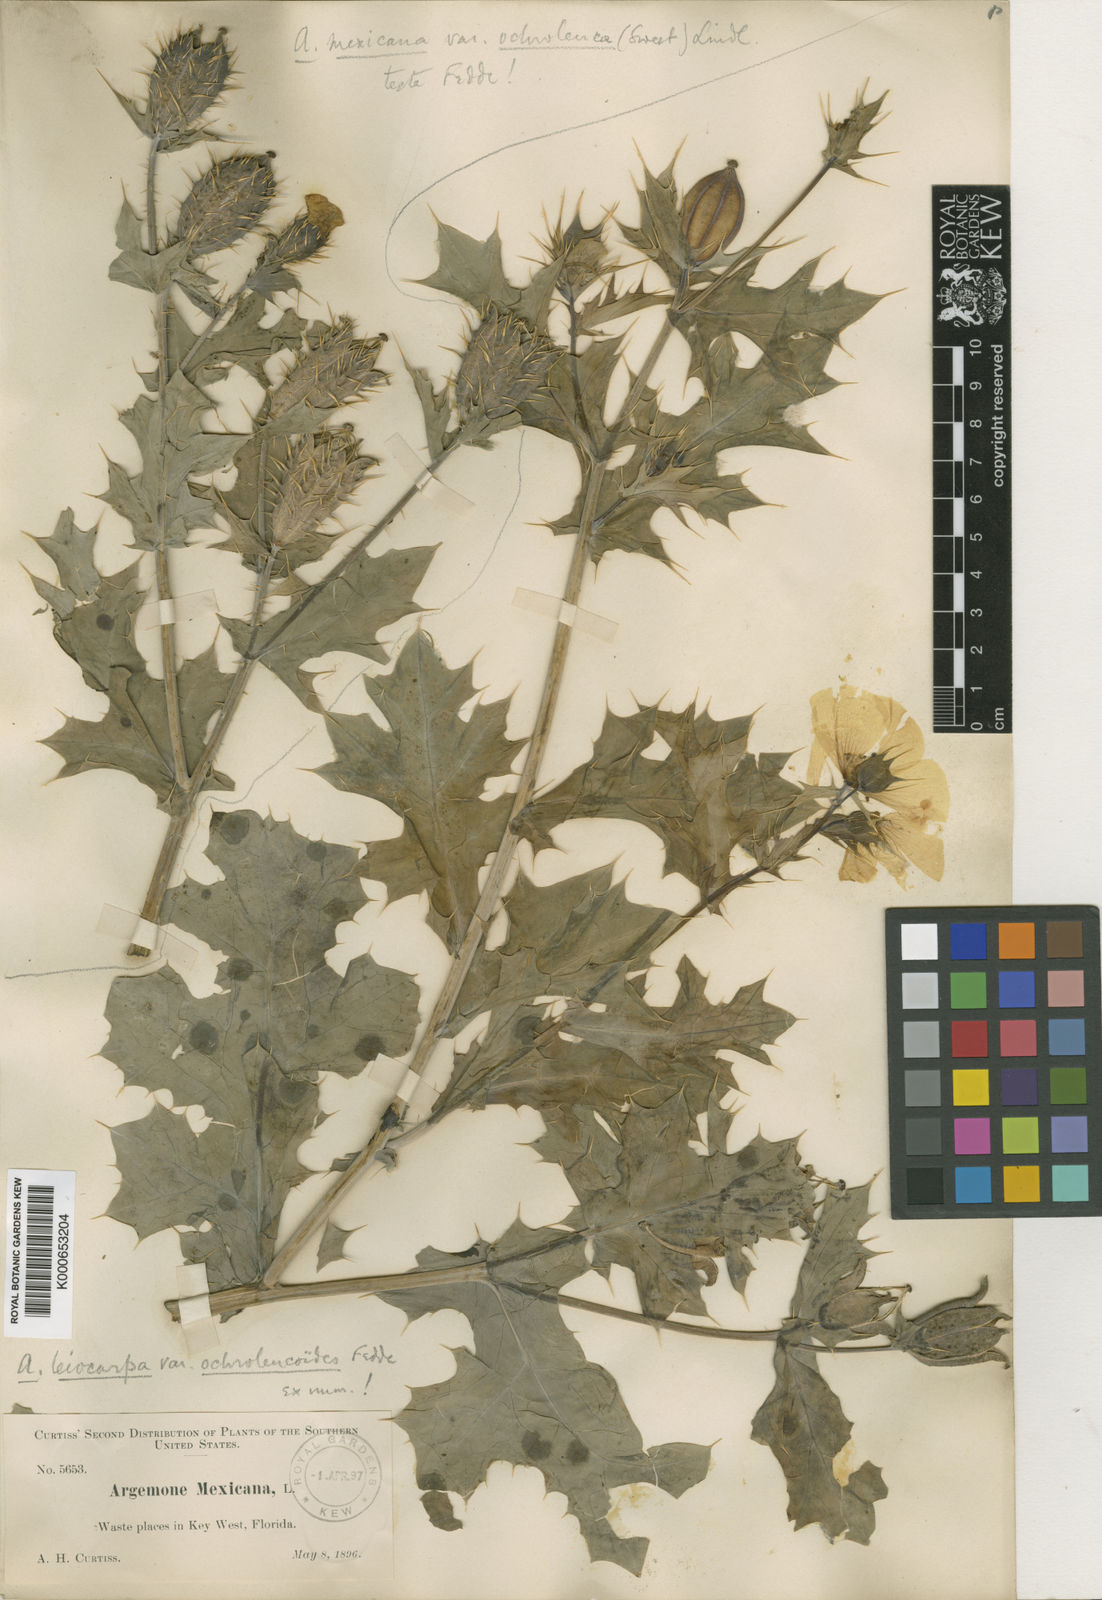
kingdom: Plantae
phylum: Tracheophyta
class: Magnoliopsida
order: Ranunculales
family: Papaveraceae
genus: Argemone
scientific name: Argemone mexicana
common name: Mexican poppy
